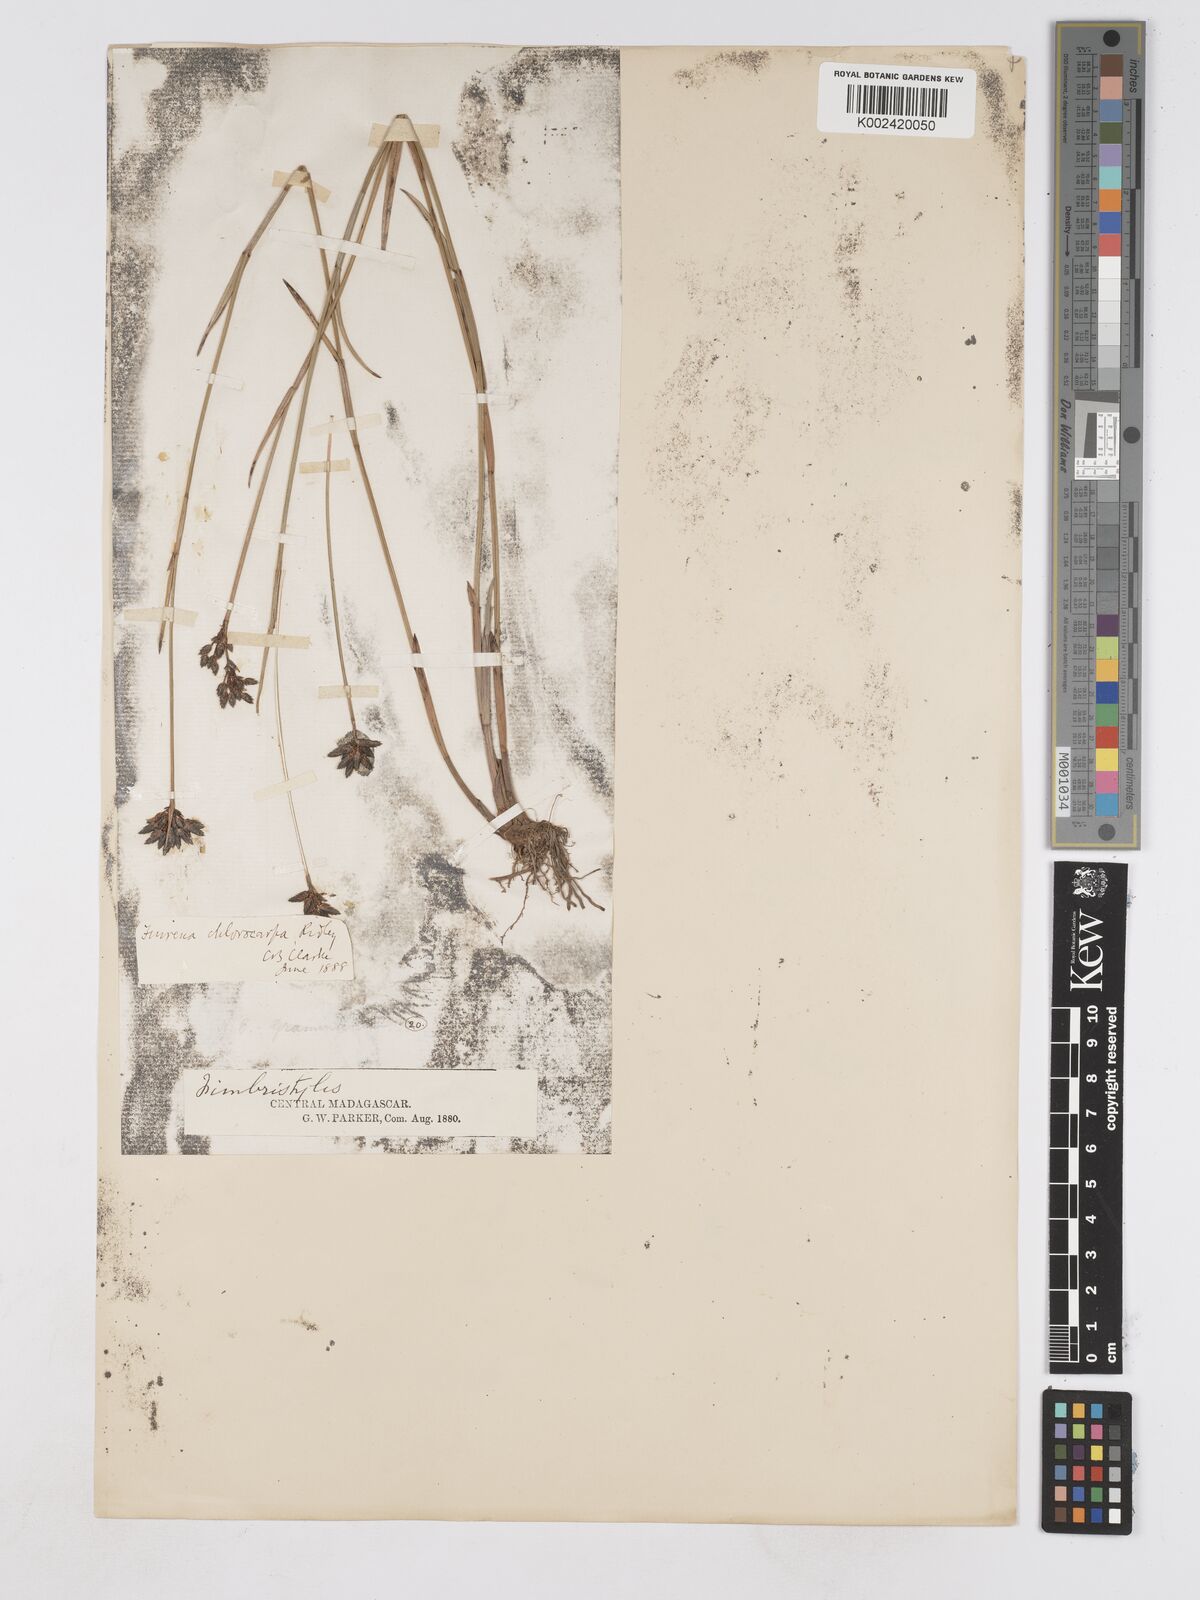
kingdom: Plantae
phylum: Tracheophyta
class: Liliopsida
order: Poales
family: Cyperaceae
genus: Fuirena
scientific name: Fuirena stricta
